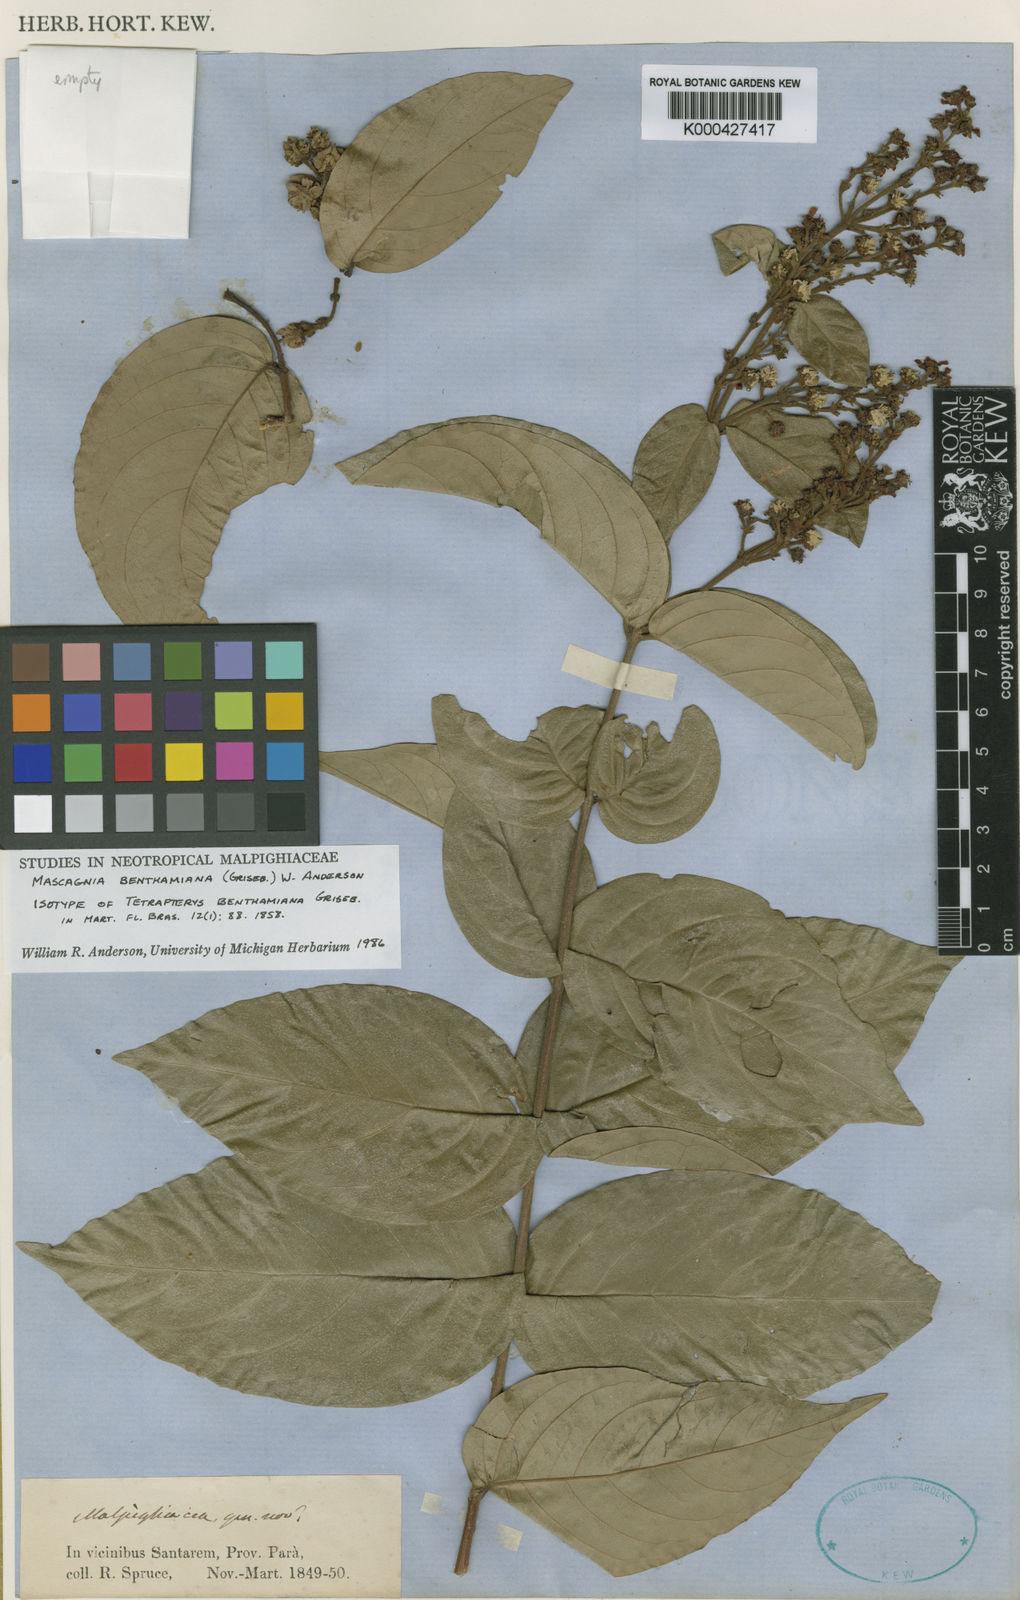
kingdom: Plantae
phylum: Tracheophyta
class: Magnoliopsida
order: Malpighiales
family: Malpighiaceae
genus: Niedenzuella
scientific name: Niedenzuella stannea
